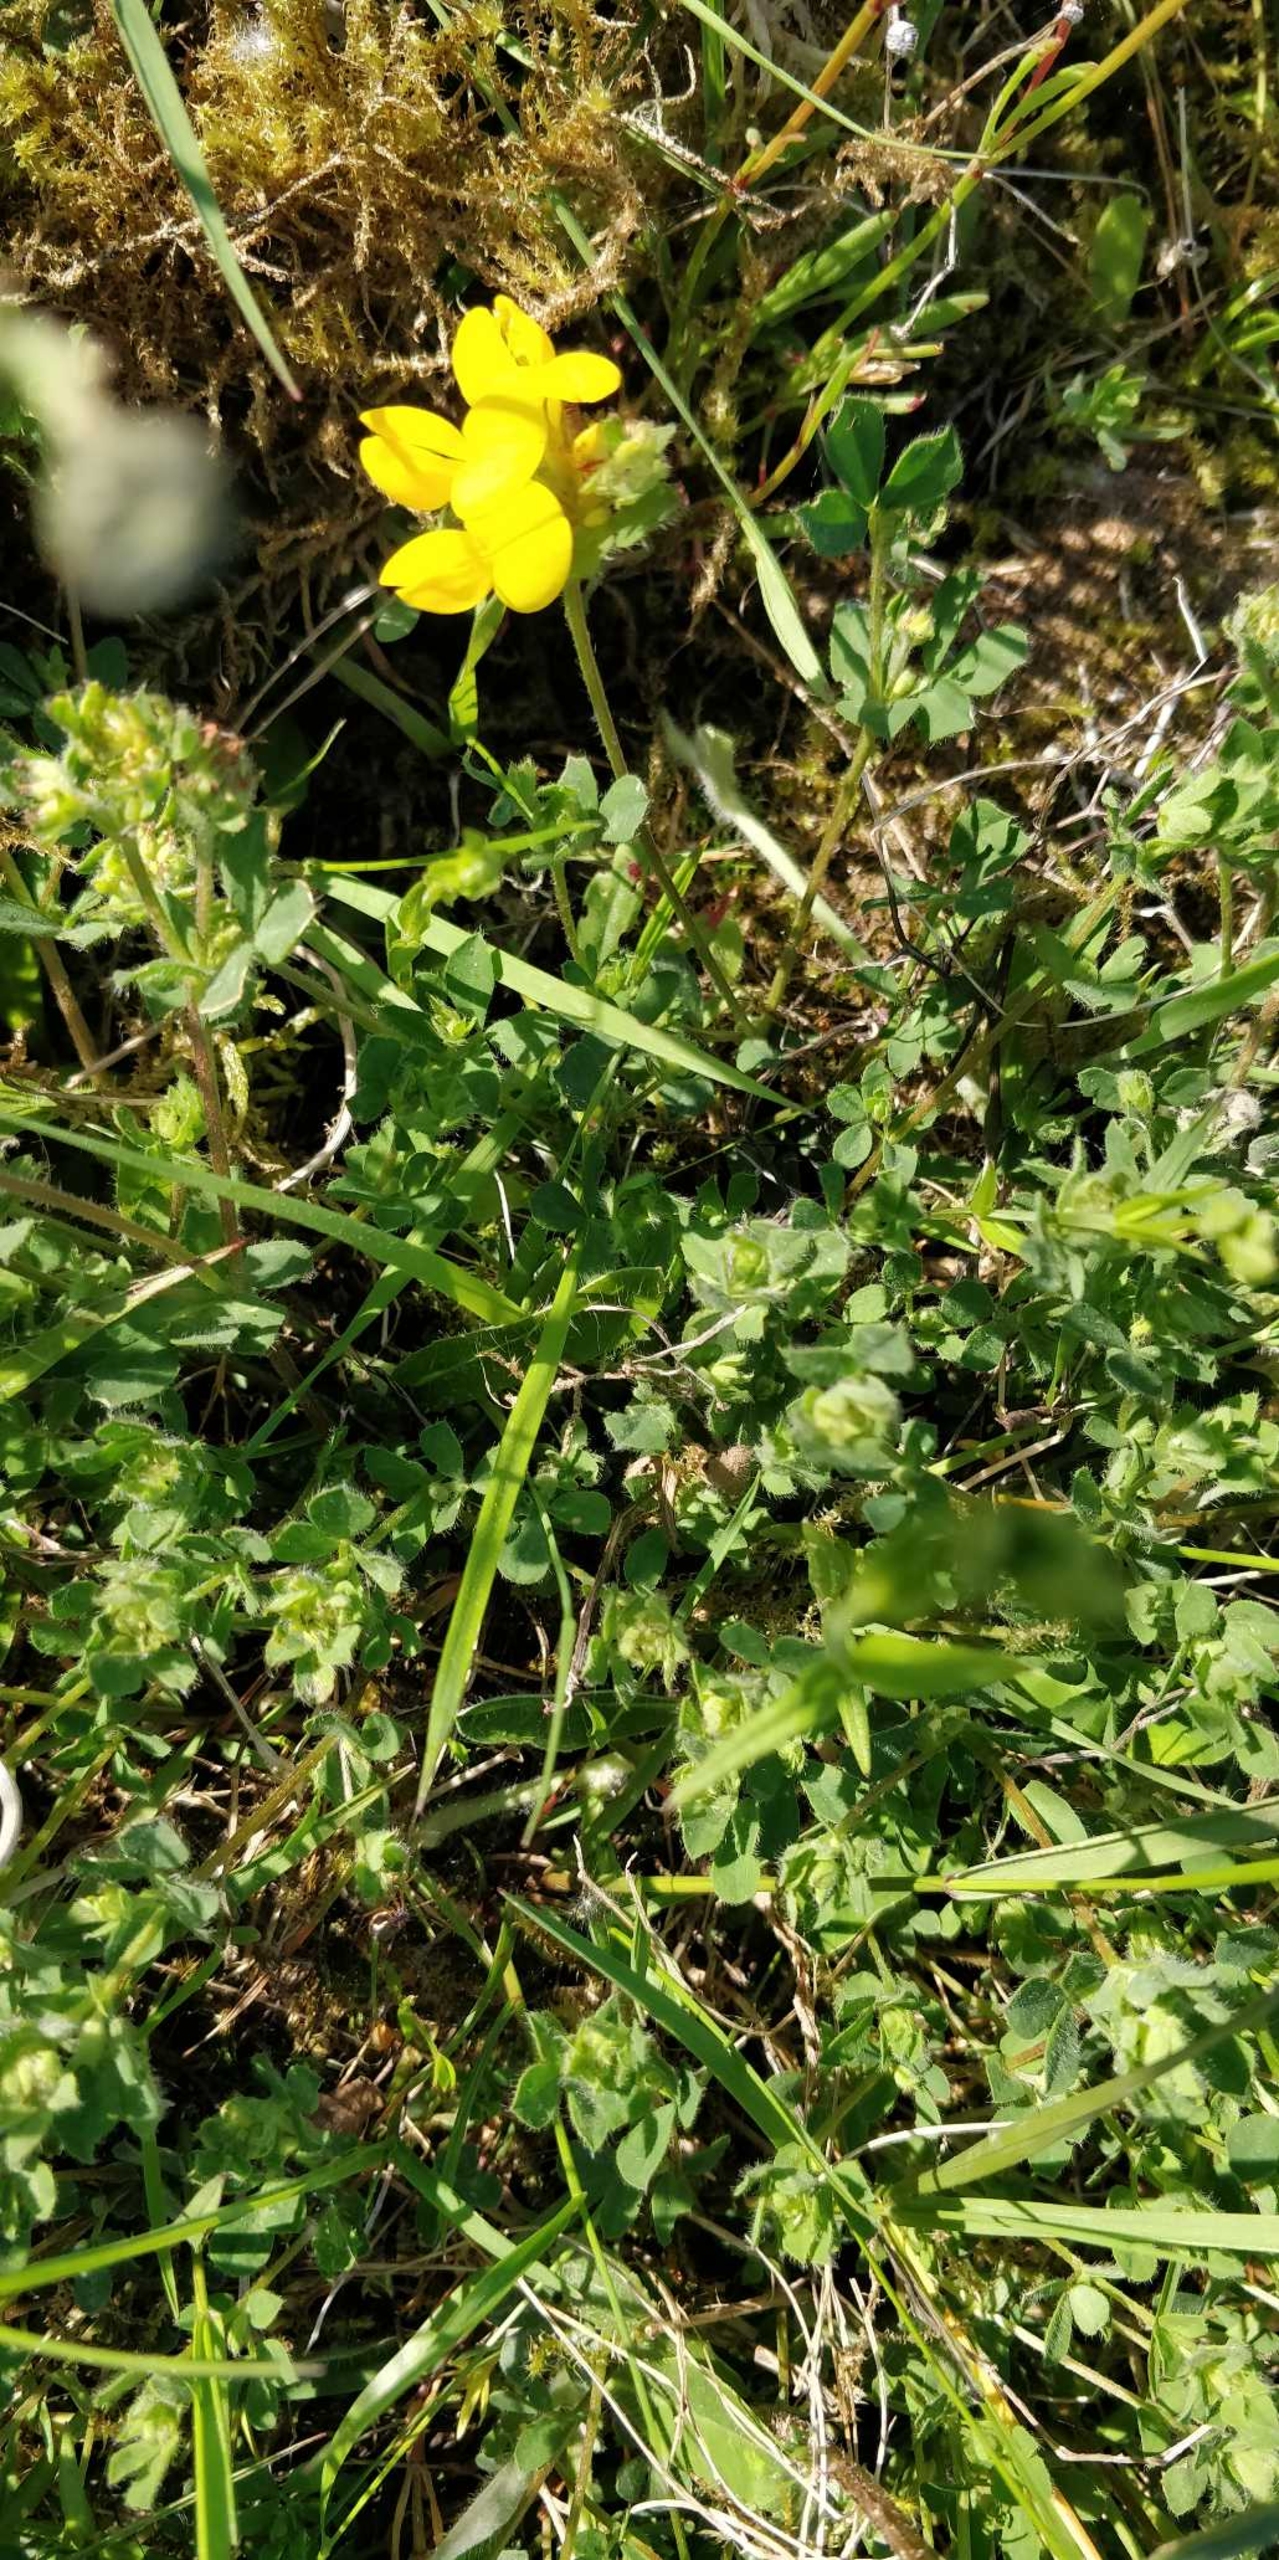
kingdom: Plantae
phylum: Tracheophyta
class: Magnoliopsida
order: Fabales
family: Fabaceae
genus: Lotus
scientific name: Lotus corniculatus
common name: Almindelig kællingetand
